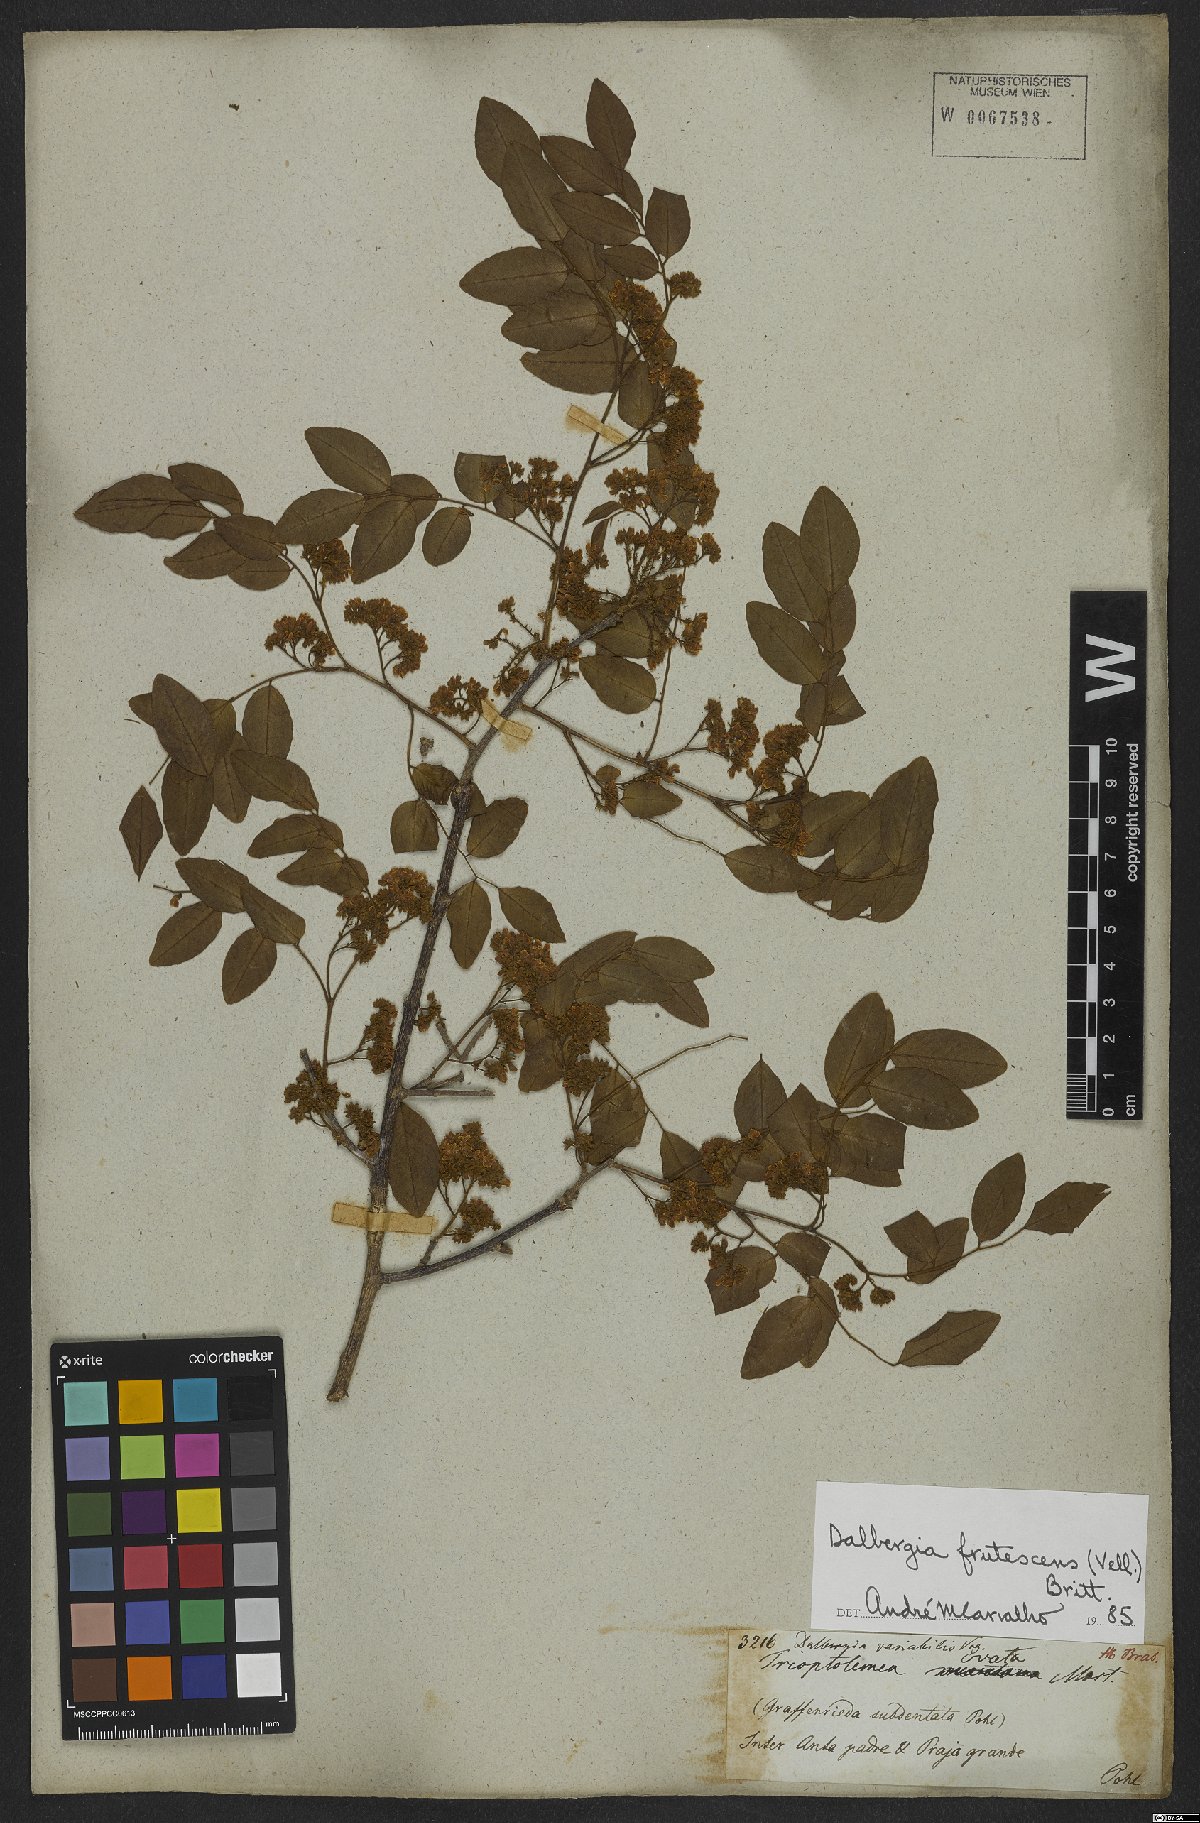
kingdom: Plantae
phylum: Tracheophyta
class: Magnoliopsida
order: Fabales
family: Fabaceae
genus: Dalbergia
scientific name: Dalbergia frutescens
